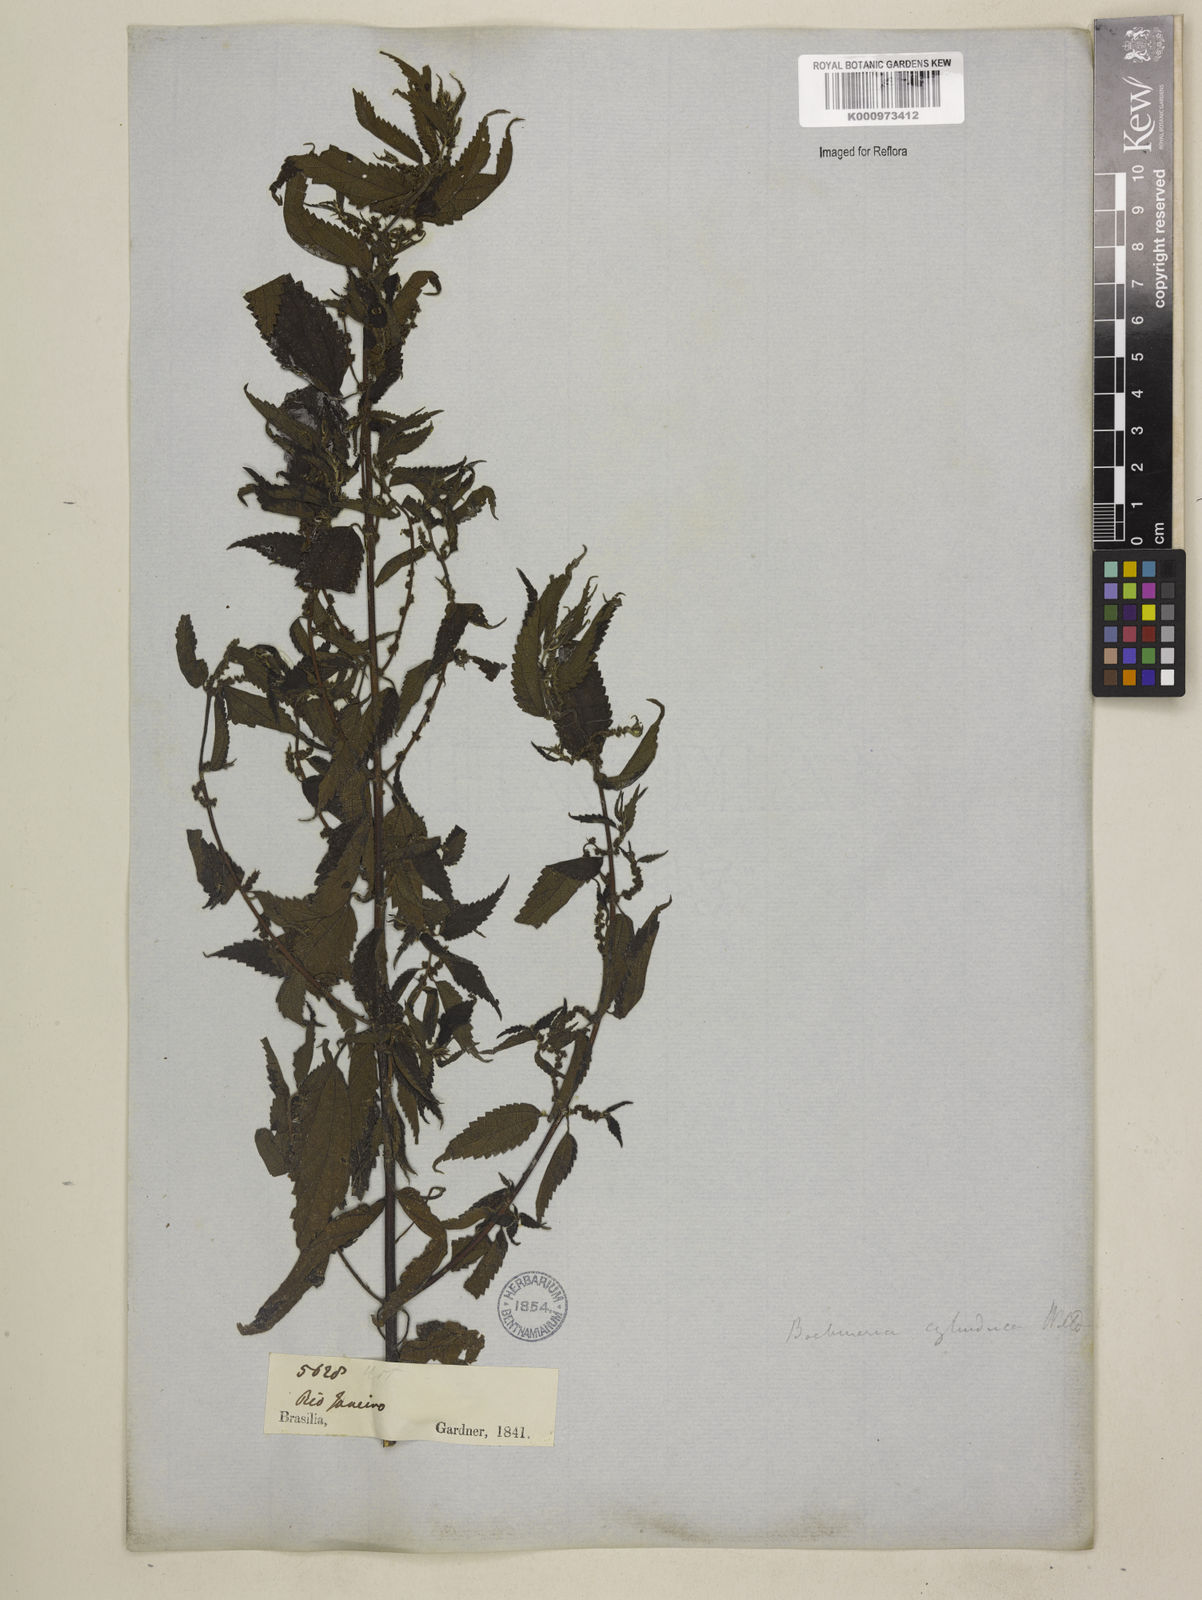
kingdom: Plantae
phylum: Tracheophyta
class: Magnoliopsida
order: Rosales
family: Urticaceae
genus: Boehmeria
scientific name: Boehmeria cylindrica
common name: Bog-hemp
